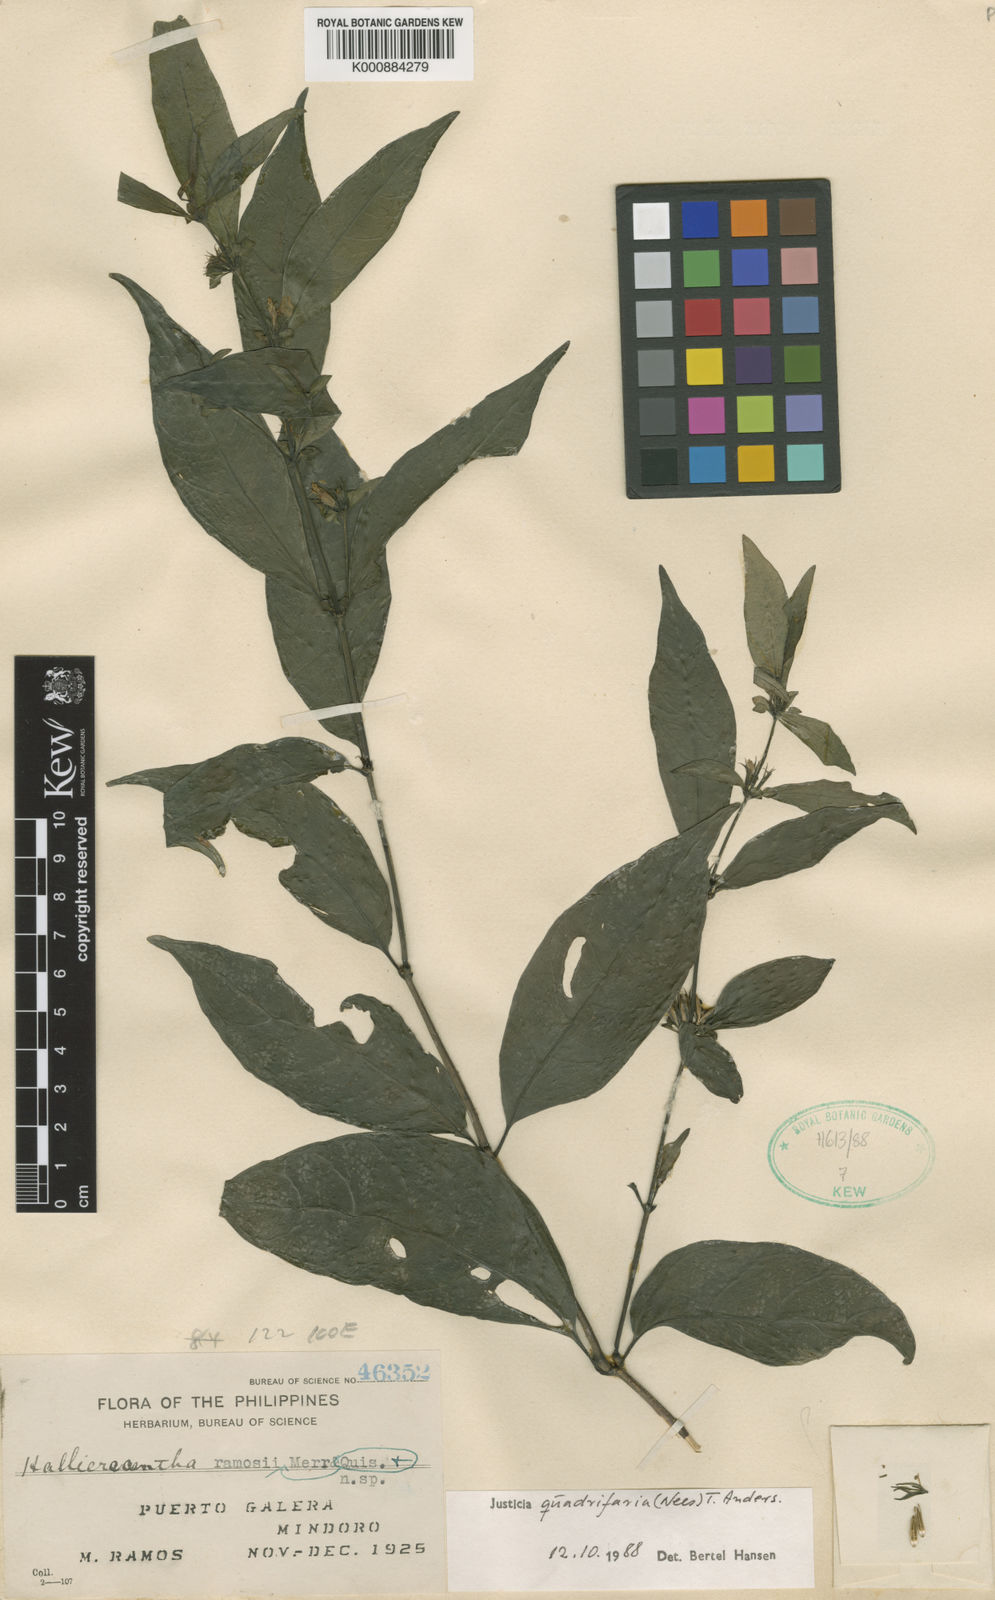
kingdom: Plantae
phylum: Tracheophyta
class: Magnoliopsida
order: Lamiales
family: Acanthaceae
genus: Justicia
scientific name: Justicia quadrifaria
